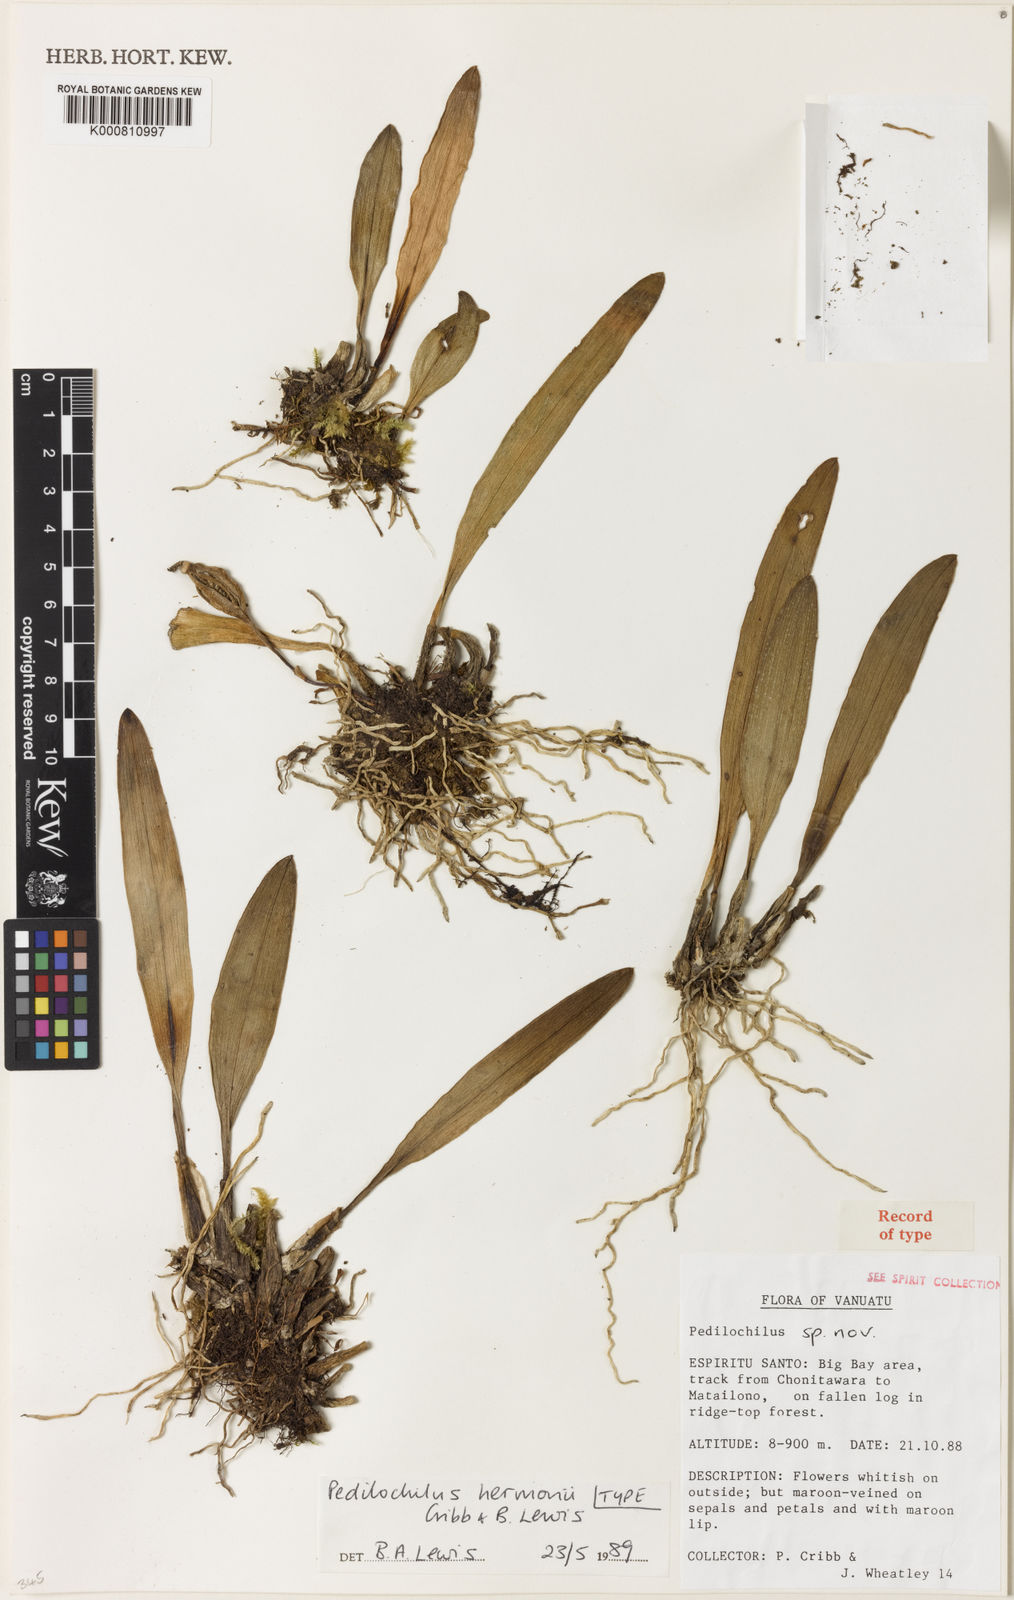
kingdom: Plantae
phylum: Tracheophyta
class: Liliopsida
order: Asparagales
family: Orchidaceae
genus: Bulbophyllum
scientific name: Bulbophyllum hermonii
